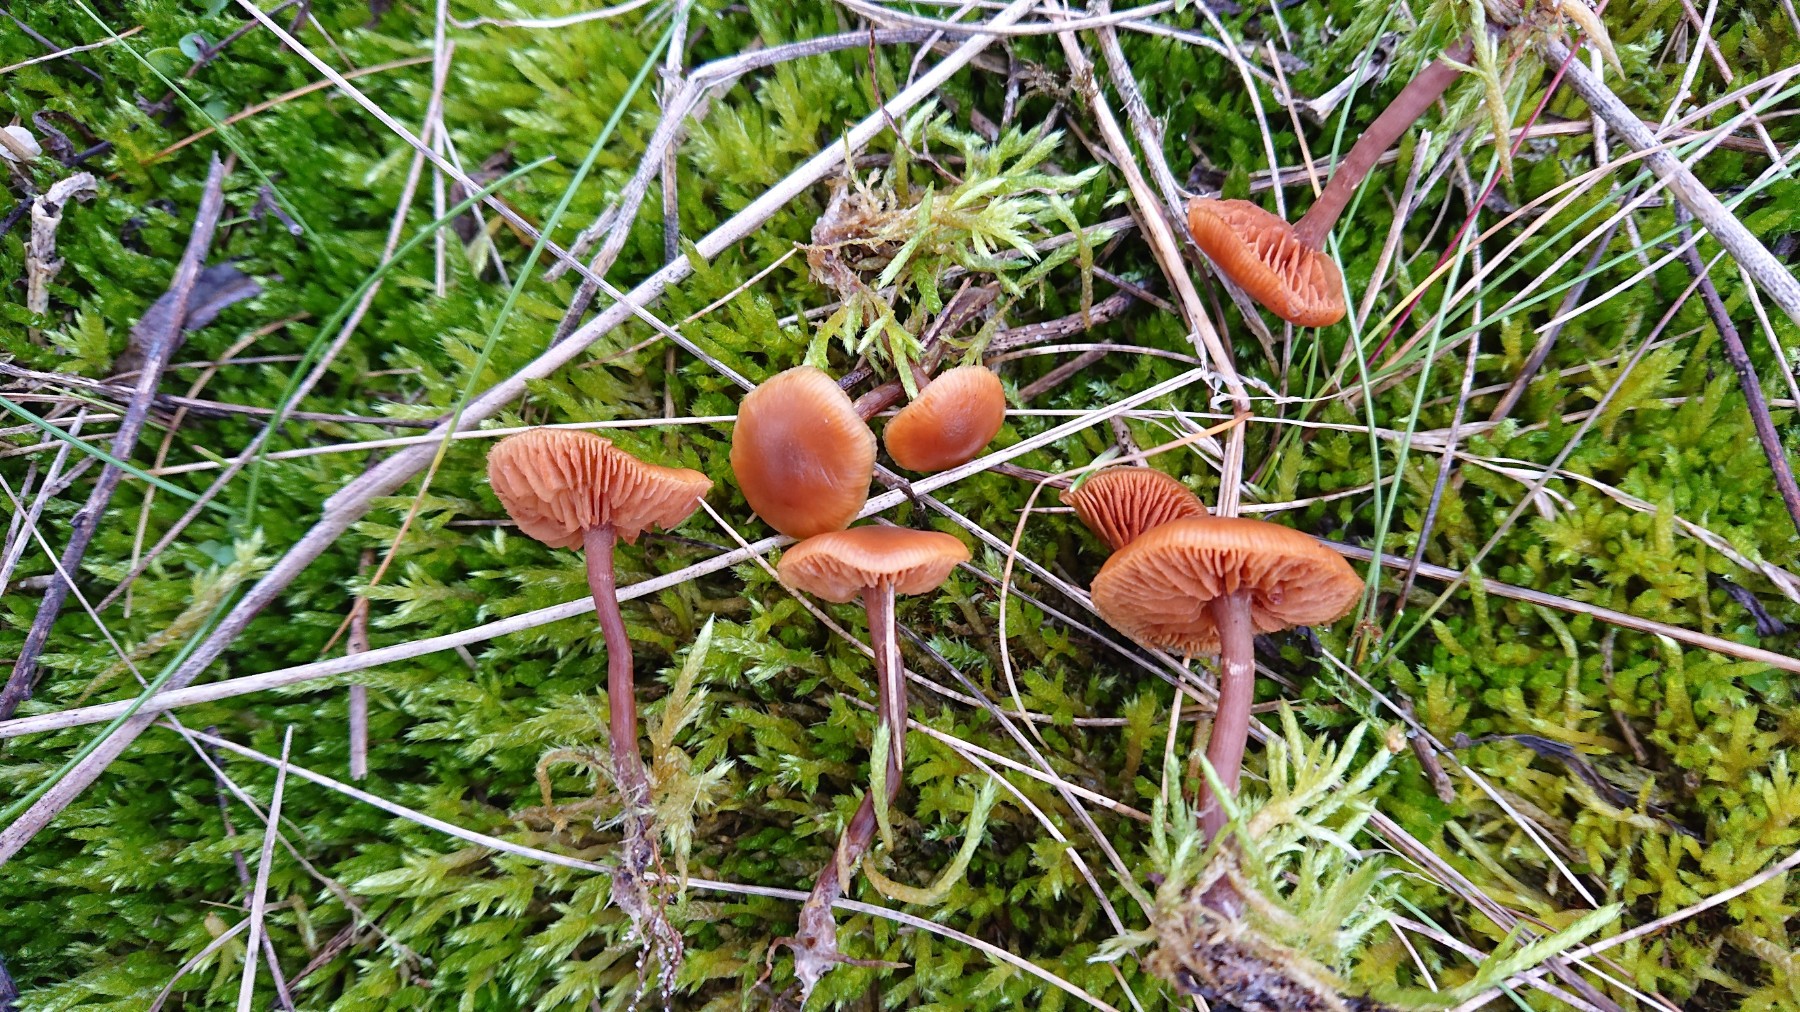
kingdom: Fungi
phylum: Basidiomycota
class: Agaricomycetes
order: Agaricales
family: Hymenogastraceae
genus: Galerina
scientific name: Galerina
